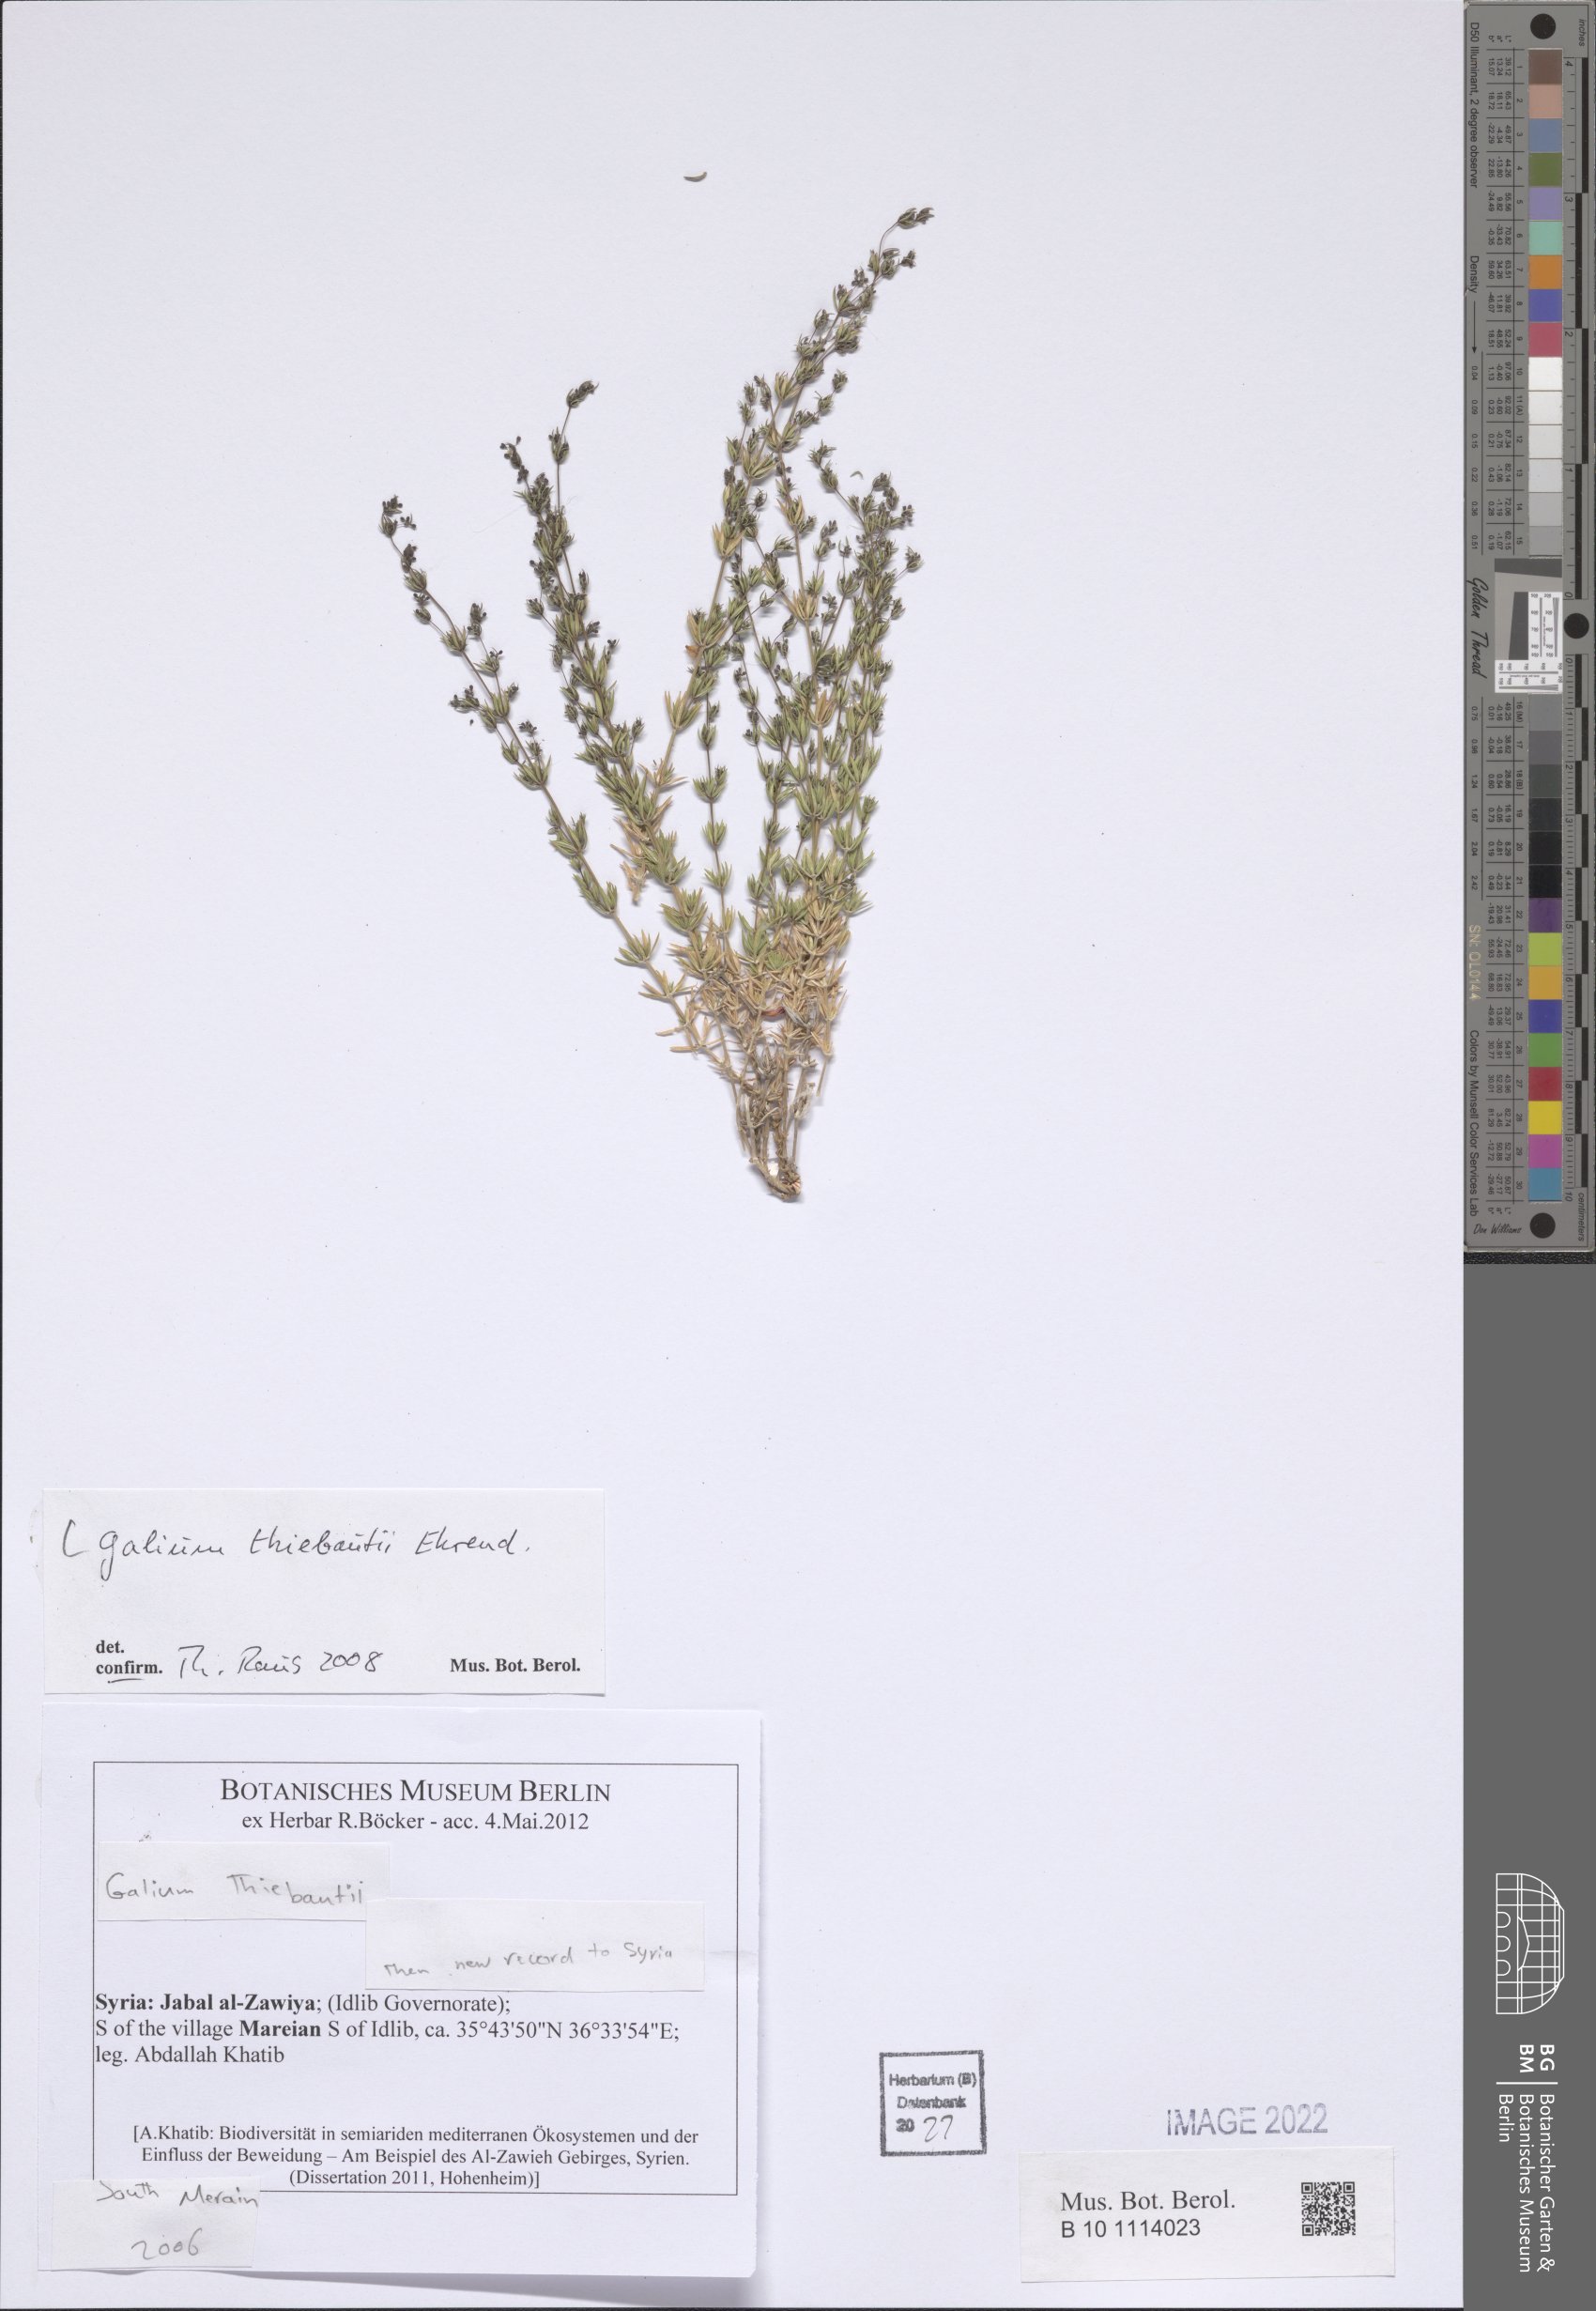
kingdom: Plantae
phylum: Tracheophyta
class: Magnoliopsida
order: Gentianales
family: Rubiaceae
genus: Galium
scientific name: Galium thiebautii
